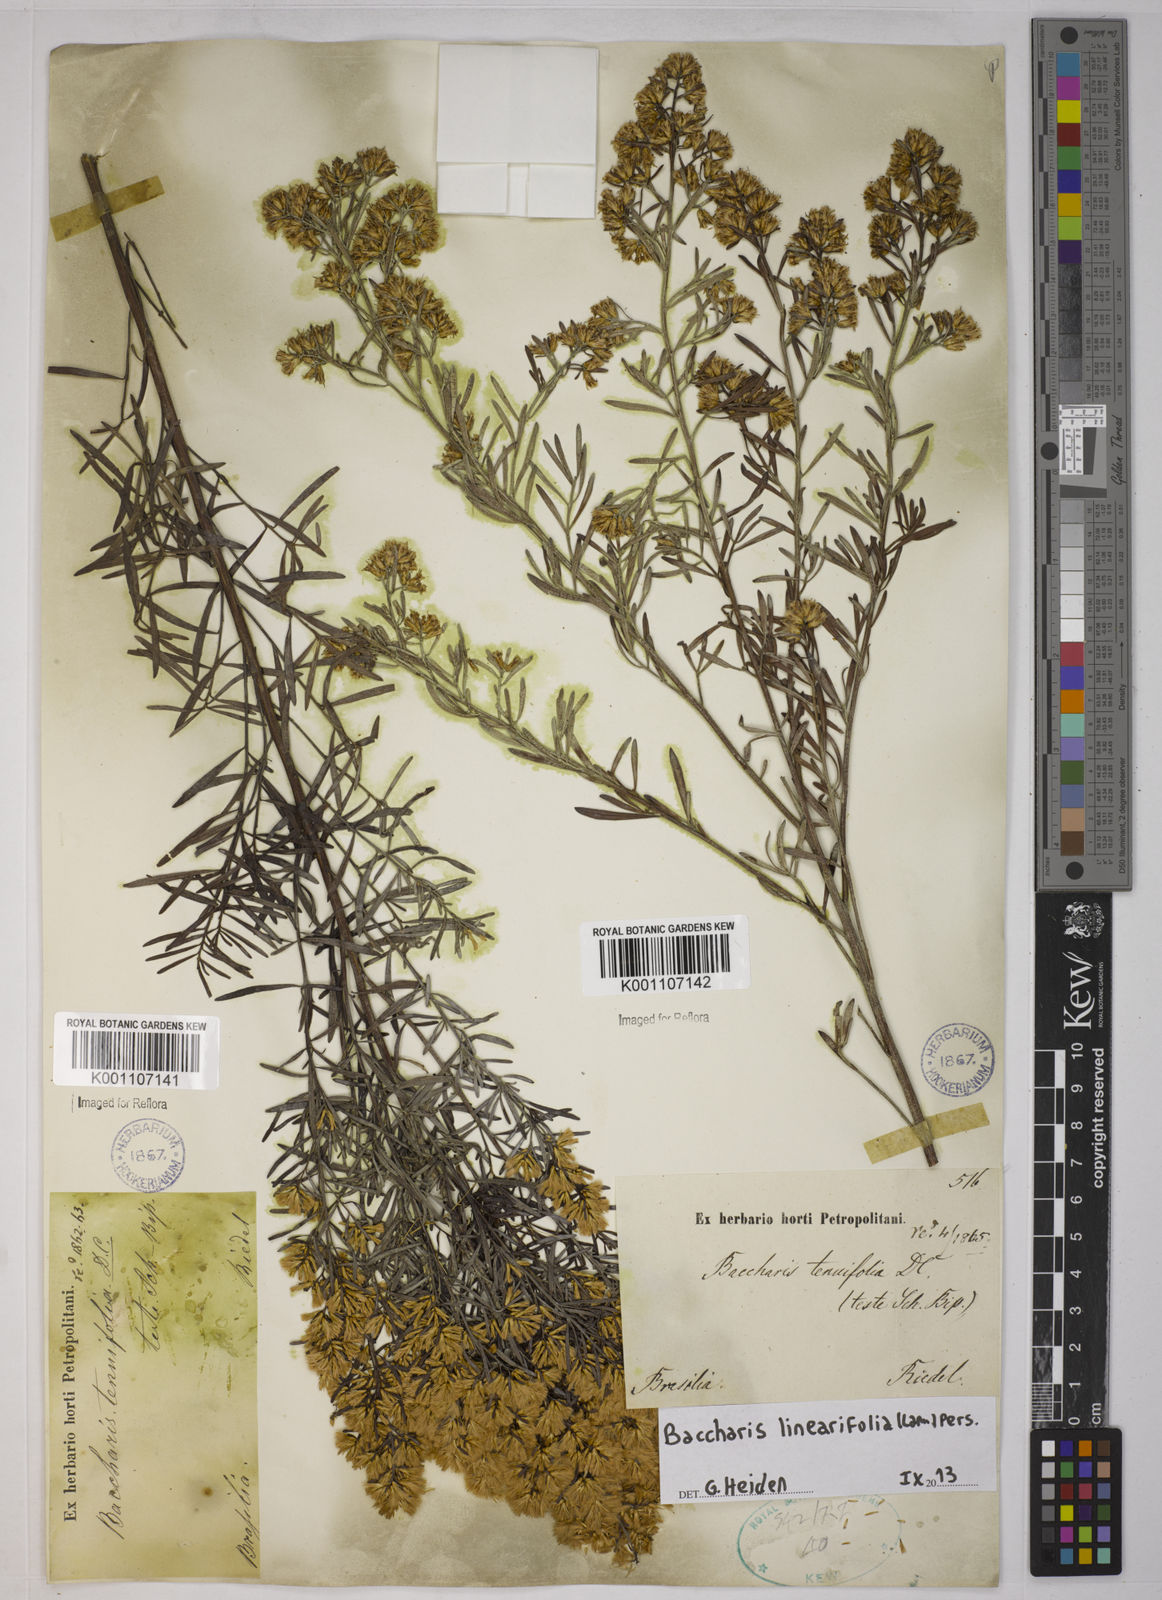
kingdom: Plantae
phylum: Tracheophyta
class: Magnoliopsida
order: Asterales
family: Asteraceae
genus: Baccharis
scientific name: Baccharis linearifolia
